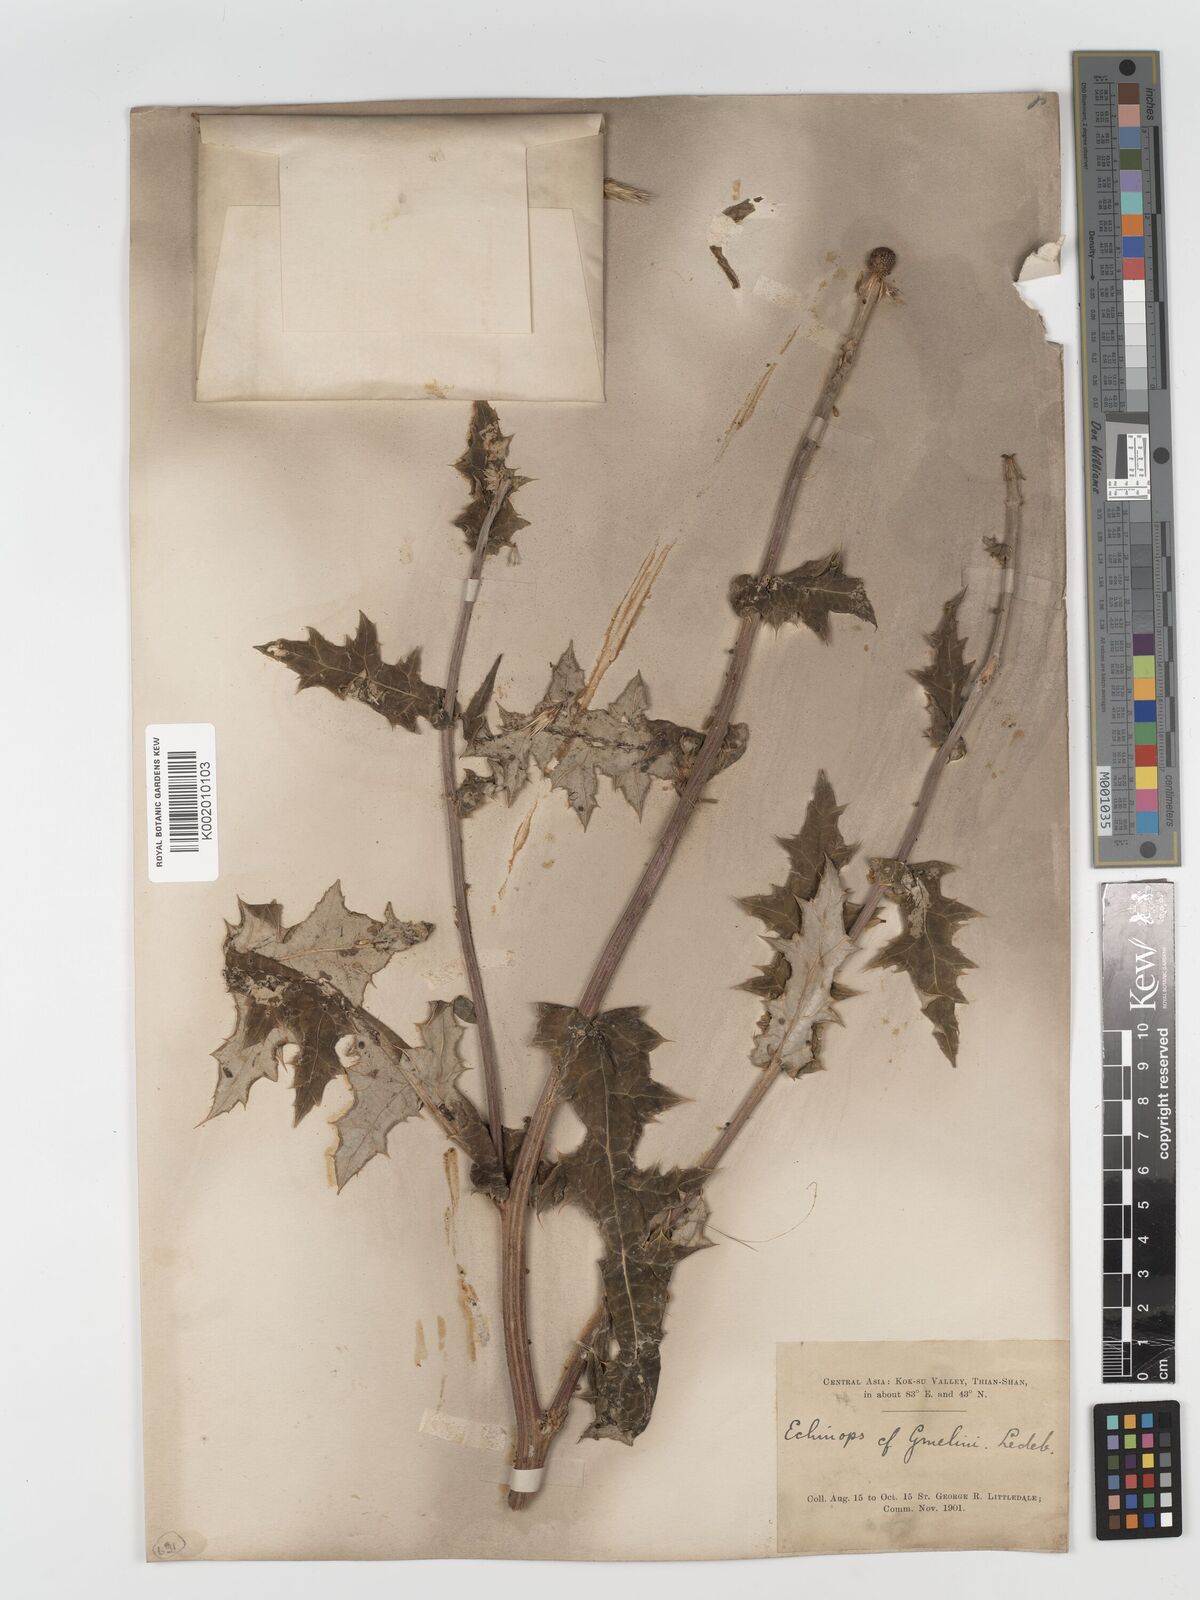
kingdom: Plantae
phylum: Tracheophyta
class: Magnoliopsida
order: Asterales
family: Asteraceae
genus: Echinops
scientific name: Echinops sphaerocephalus
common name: Glandular globe-thistle
